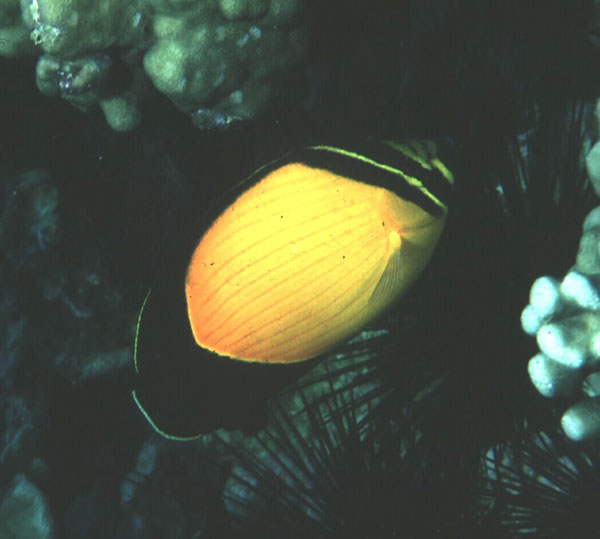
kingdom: Animalia
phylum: Chordata
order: Perciformes
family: Chaetodontidae
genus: Chaetodon
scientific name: Chaetodon melapterus
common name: Arabian butterflyfish
